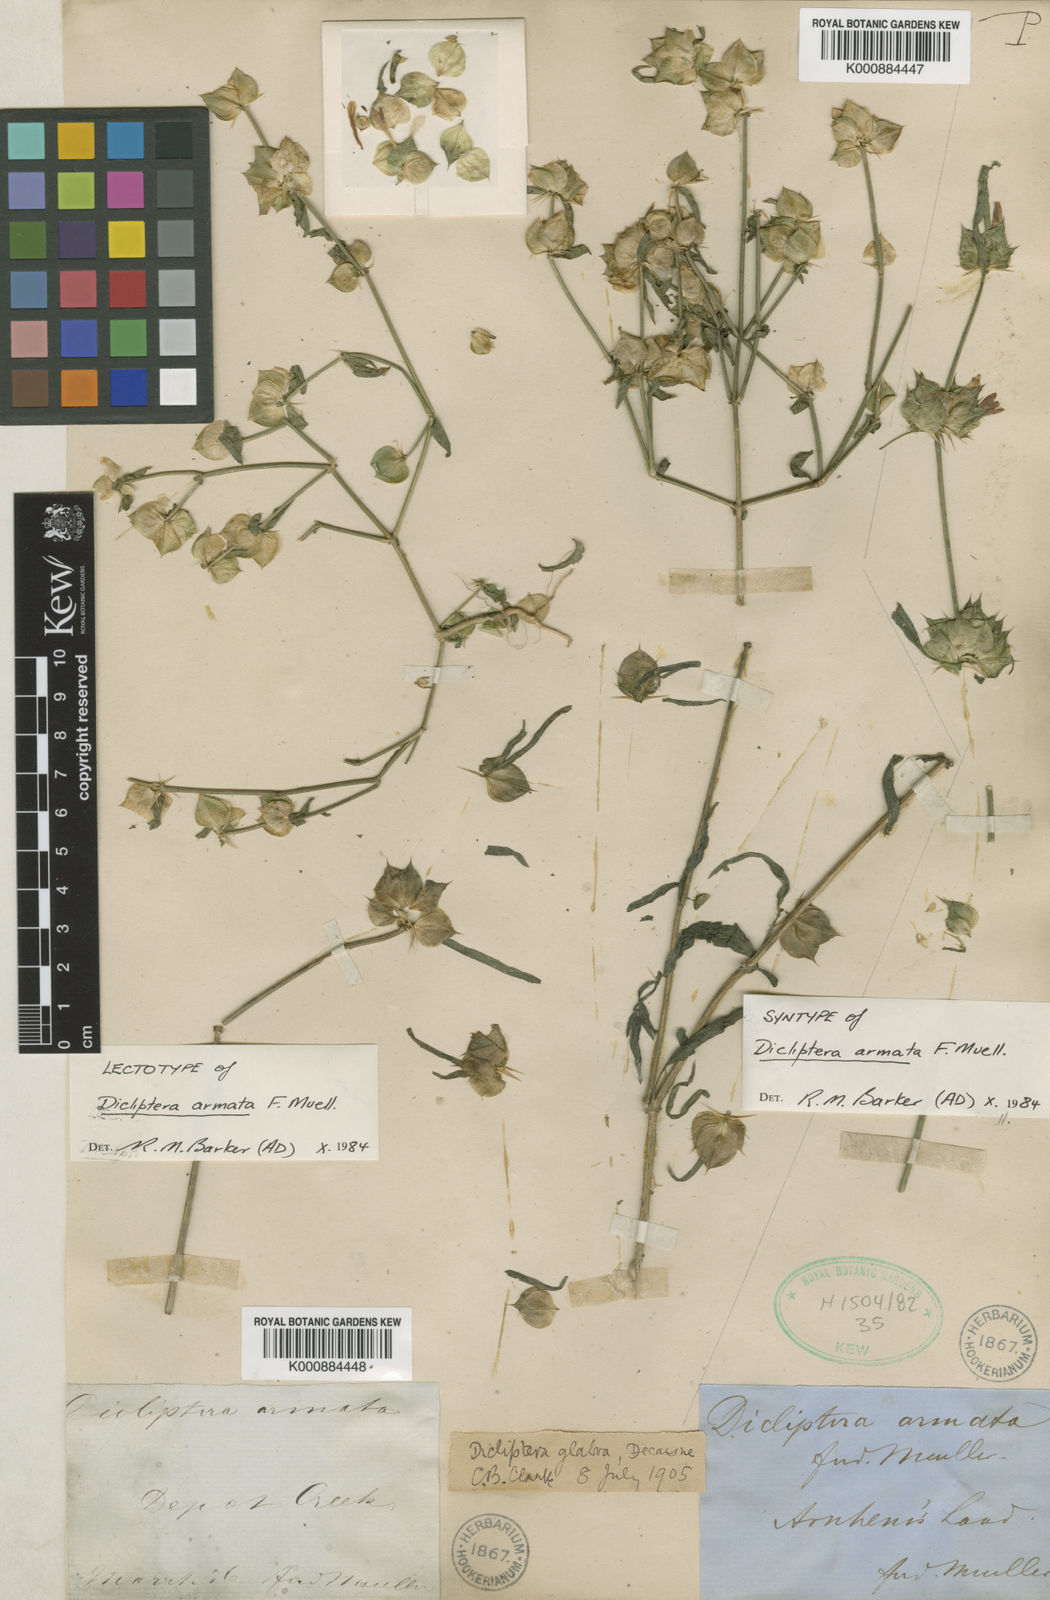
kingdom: Plantae
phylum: Tracheophyta
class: Magnoliopsida
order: Lamiales
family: Acanthaceae
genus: Dicliptera
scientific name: Dicliptera armata
